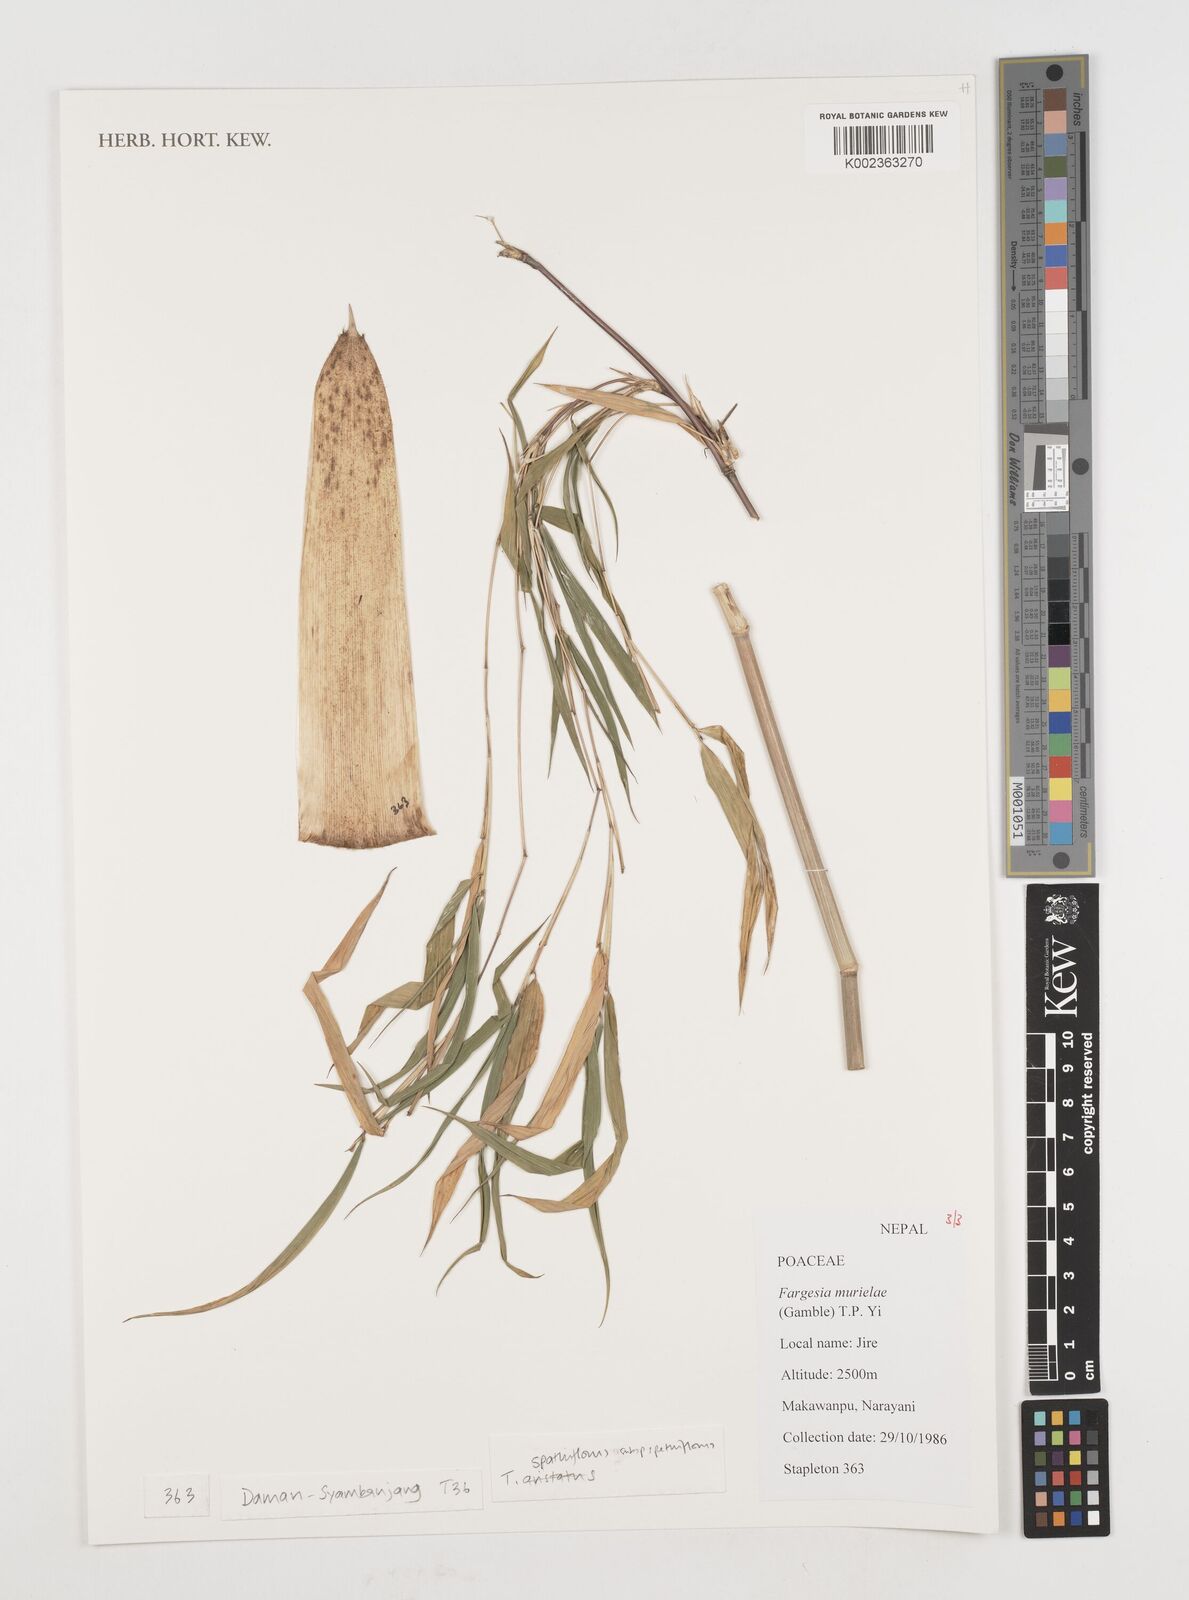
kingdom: Plantae
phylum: Tracheophyta
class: Liliopsida
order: Poales
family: Poaceae
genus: Fargesia
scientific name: Fargesia murielae
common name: Umbrella bamboo
